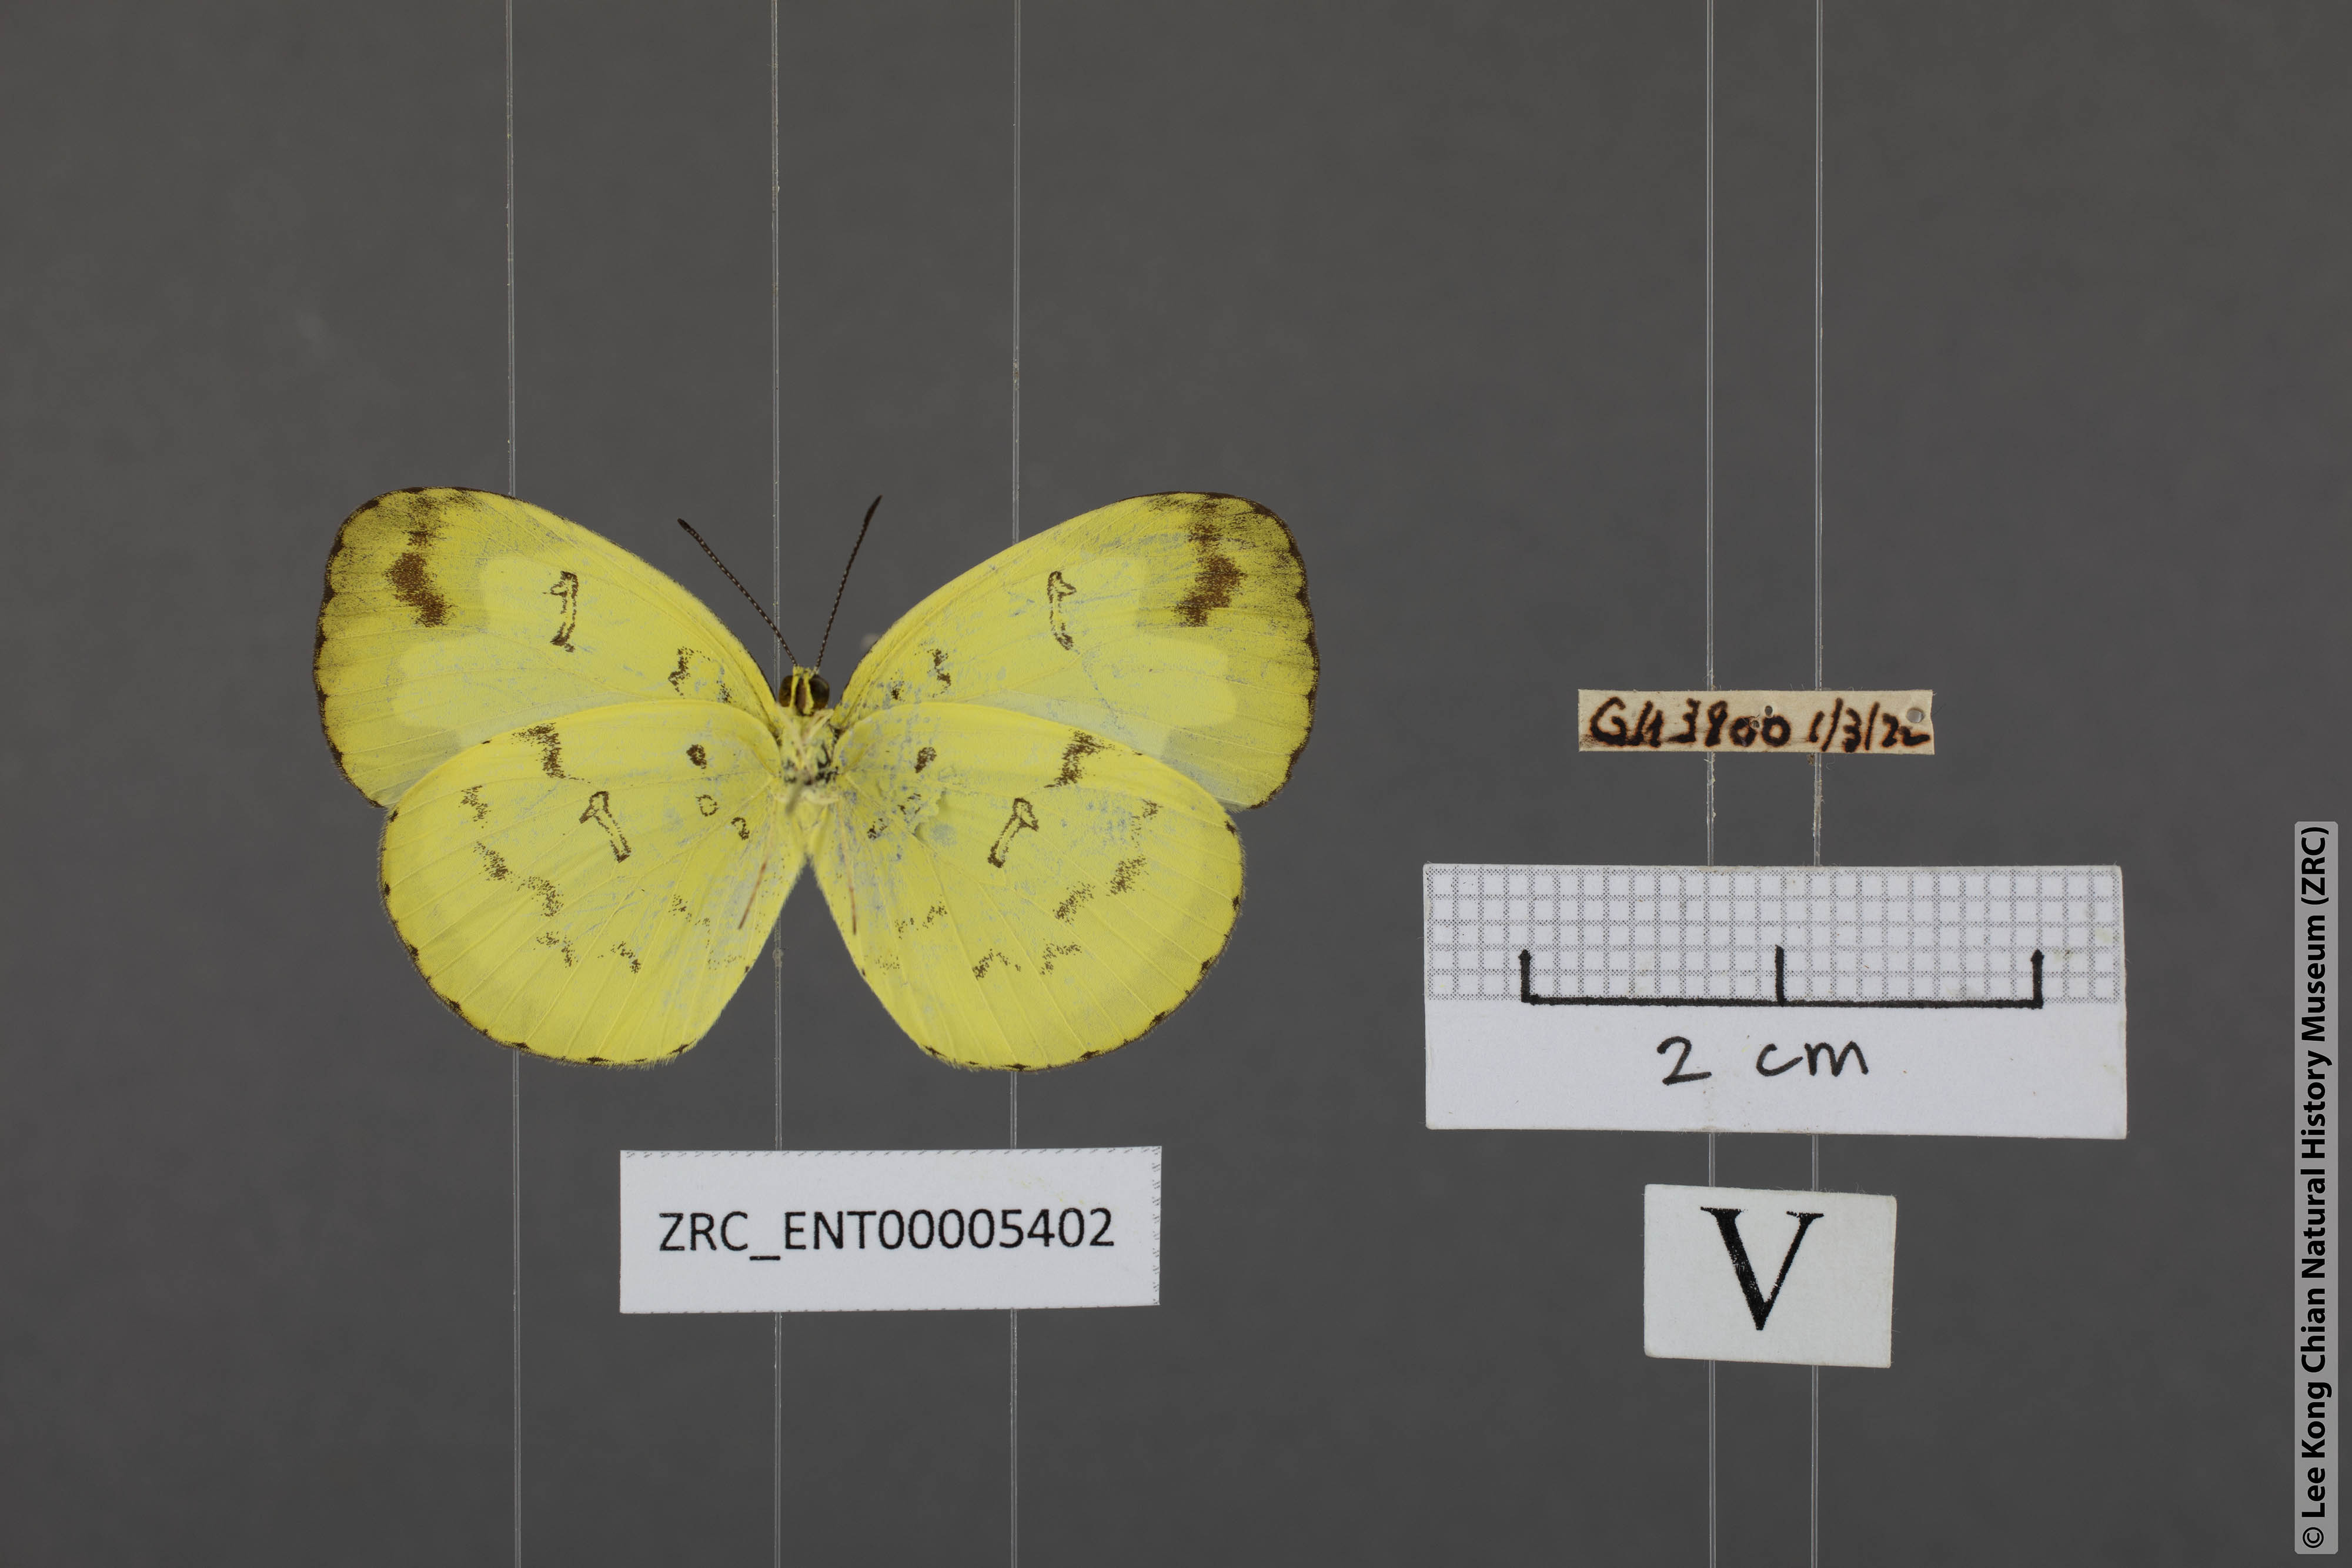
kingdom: Animalia
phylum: Arthropoda
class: Insecta
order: Lepidoptera
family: Pieridae
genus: Eurema
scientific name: Eurema ada
